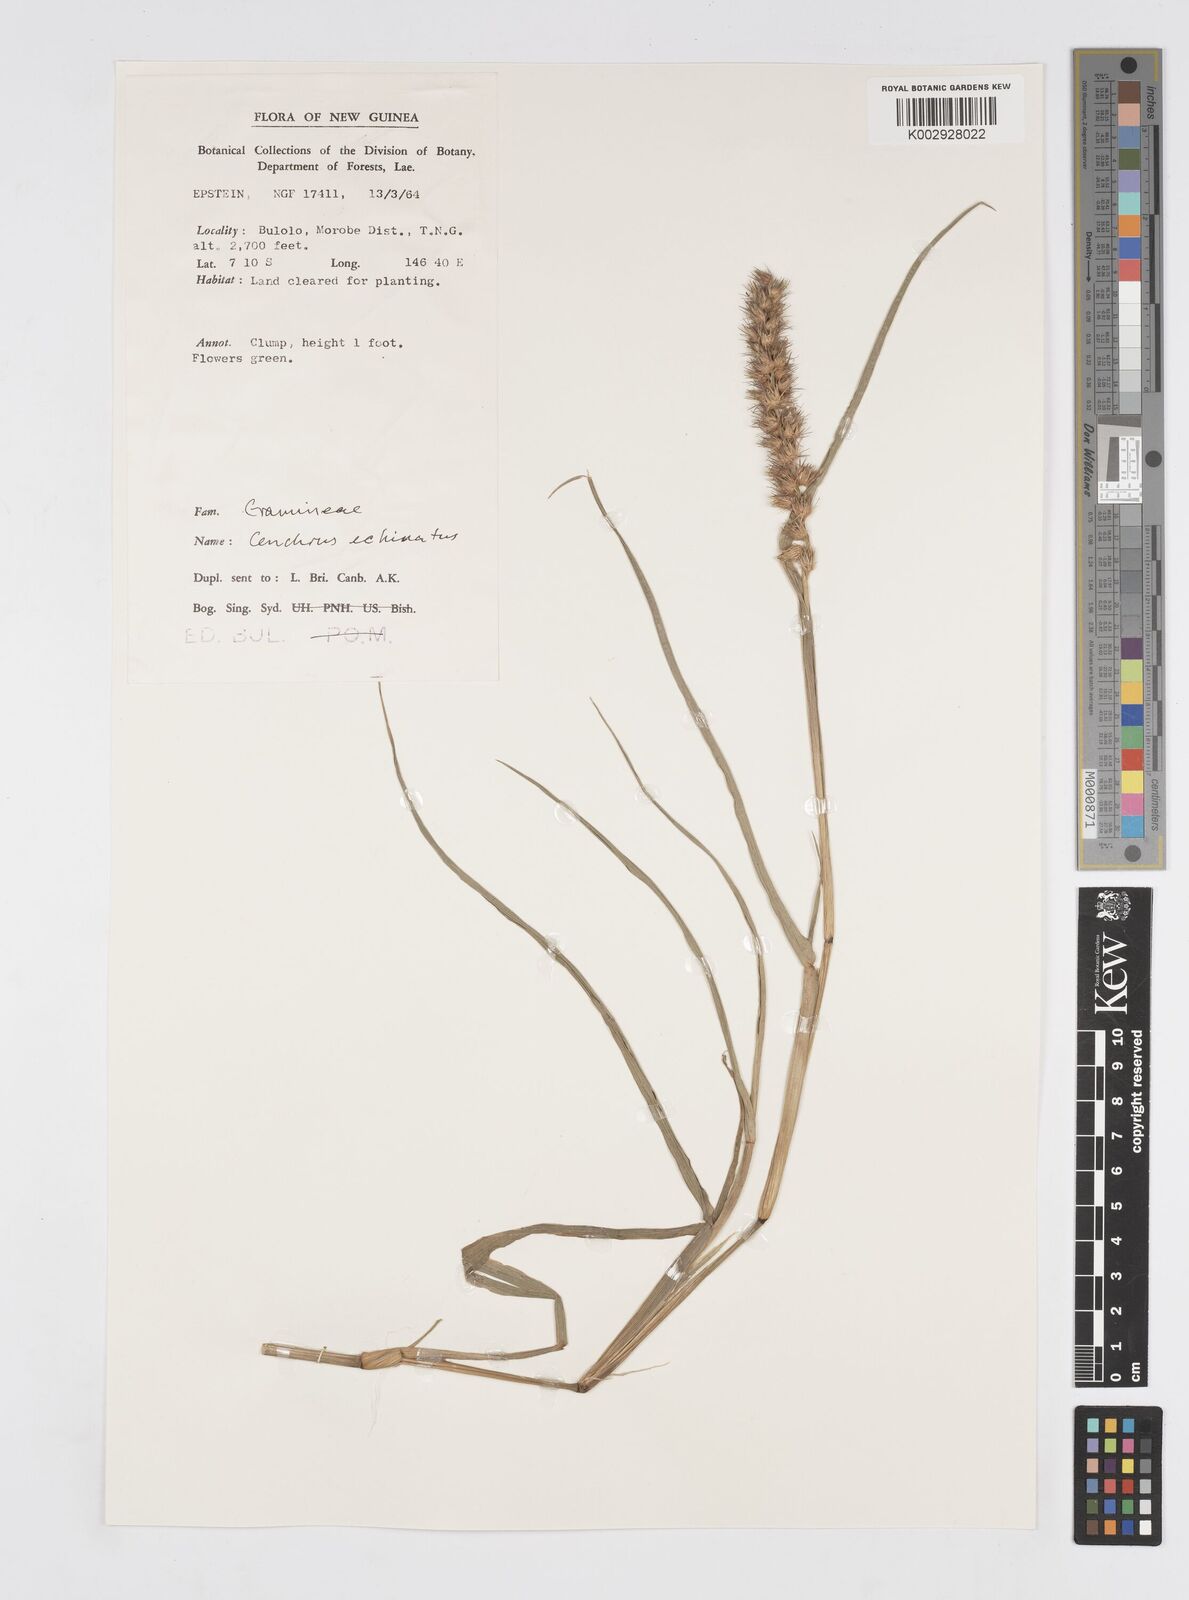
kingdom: Plantae
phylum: Tracheophyta
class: Liliopsida
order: Poales
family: Poaceae
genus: Cenchrus
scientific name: Cenchrus brownii
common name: Slim-bristle sandbur
